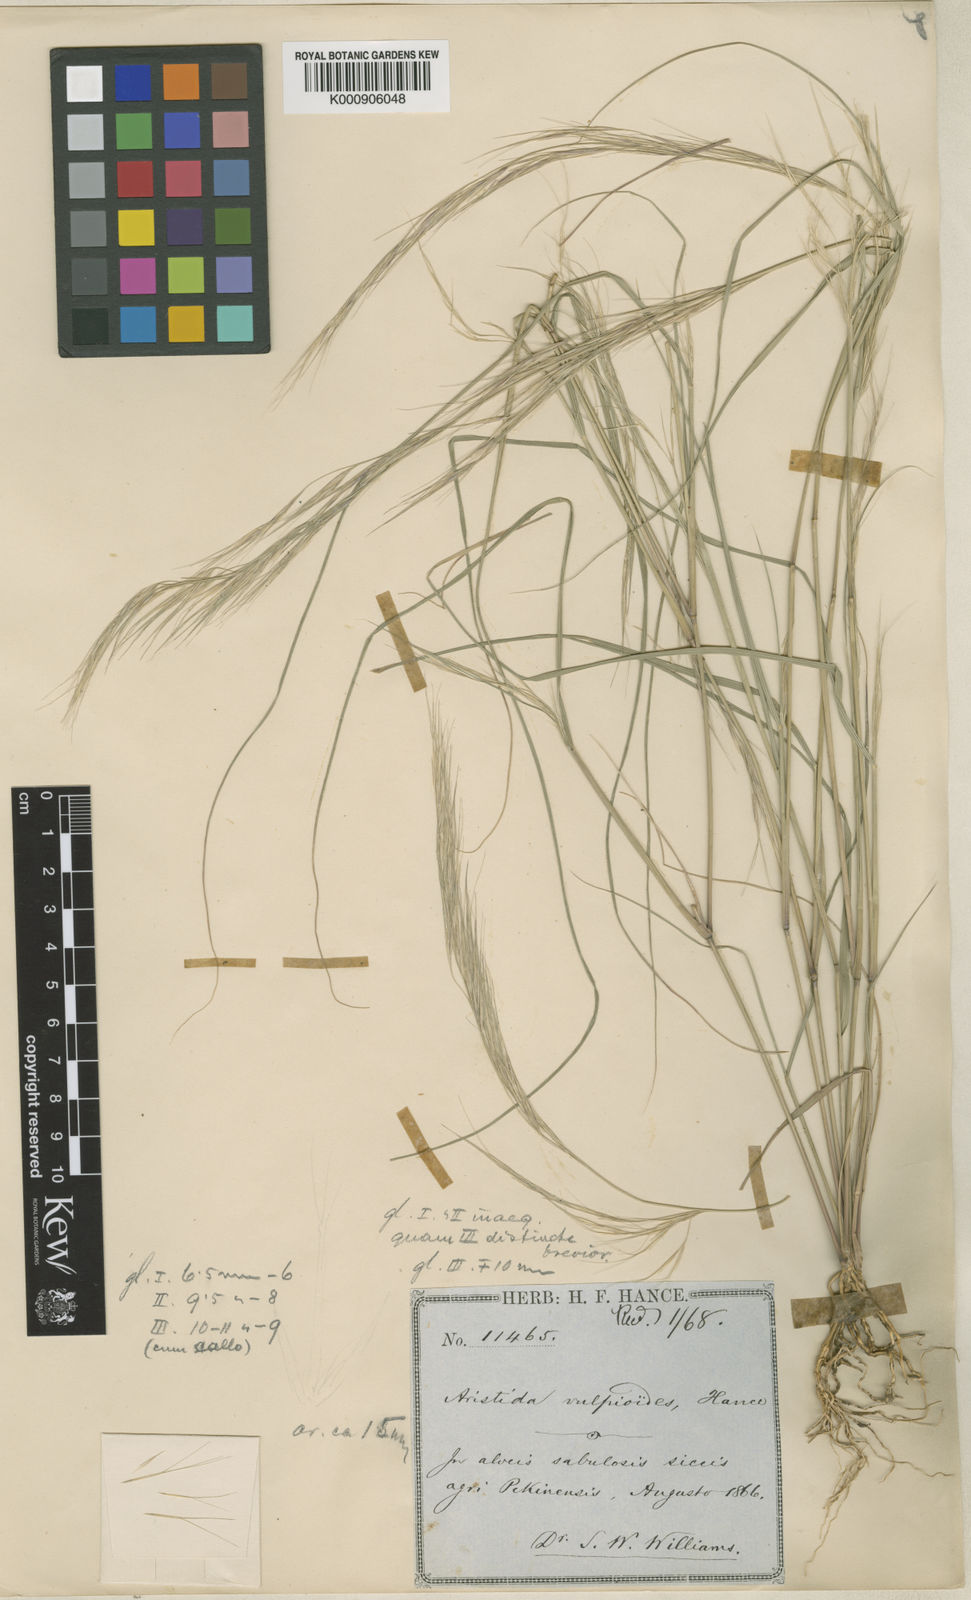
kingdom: Plantae
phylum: Tracheophyta
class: Liliopsida
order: Poales
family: Poaceae
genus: Aristida
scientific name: Aristida adscensionis
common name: Sixweeks threeawn
